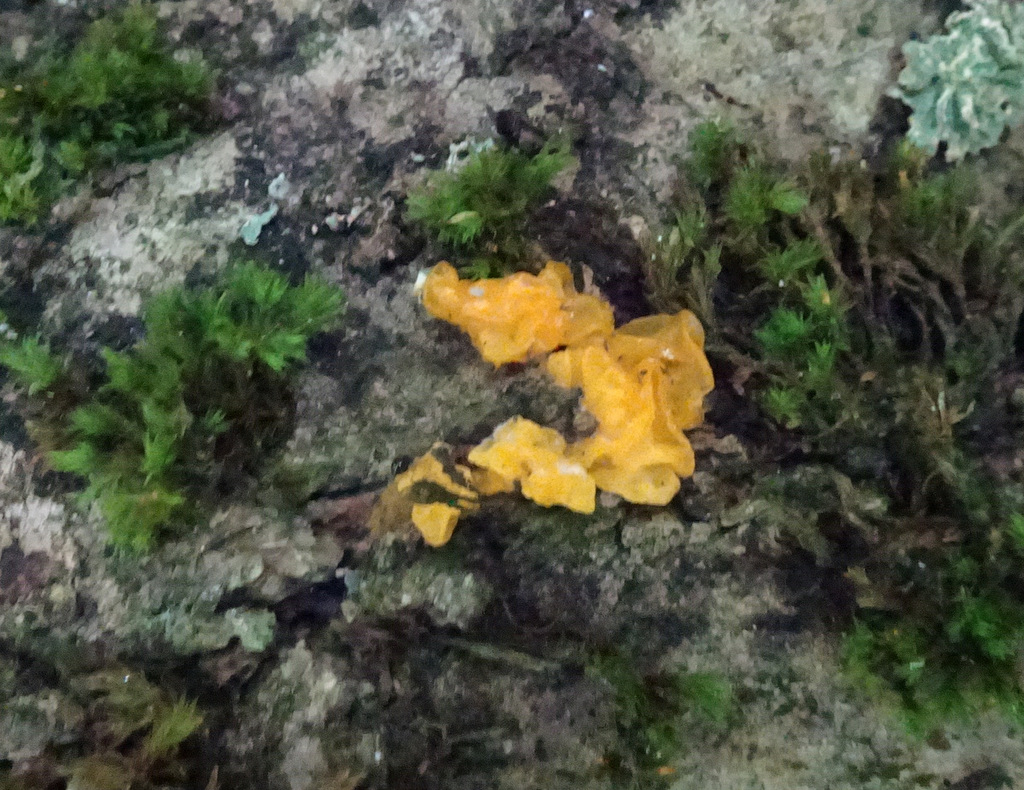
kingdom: Fungi
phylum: Basidiomycota
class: Tremellomycetes
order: Tremellales
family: Tremellaceae
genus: Tremella
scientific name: Tremella mesenterica
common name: gul bævresvamp
